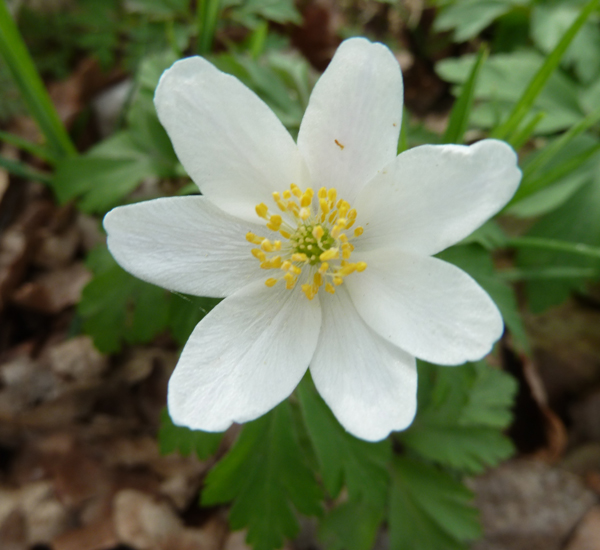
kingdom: Plantae
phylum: Tracheophyta
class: Magnoliopsida
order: Ranunculales
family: Ranunculaceae
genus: Anemone
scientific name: Anemone nemorosa
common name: Wood anemone
